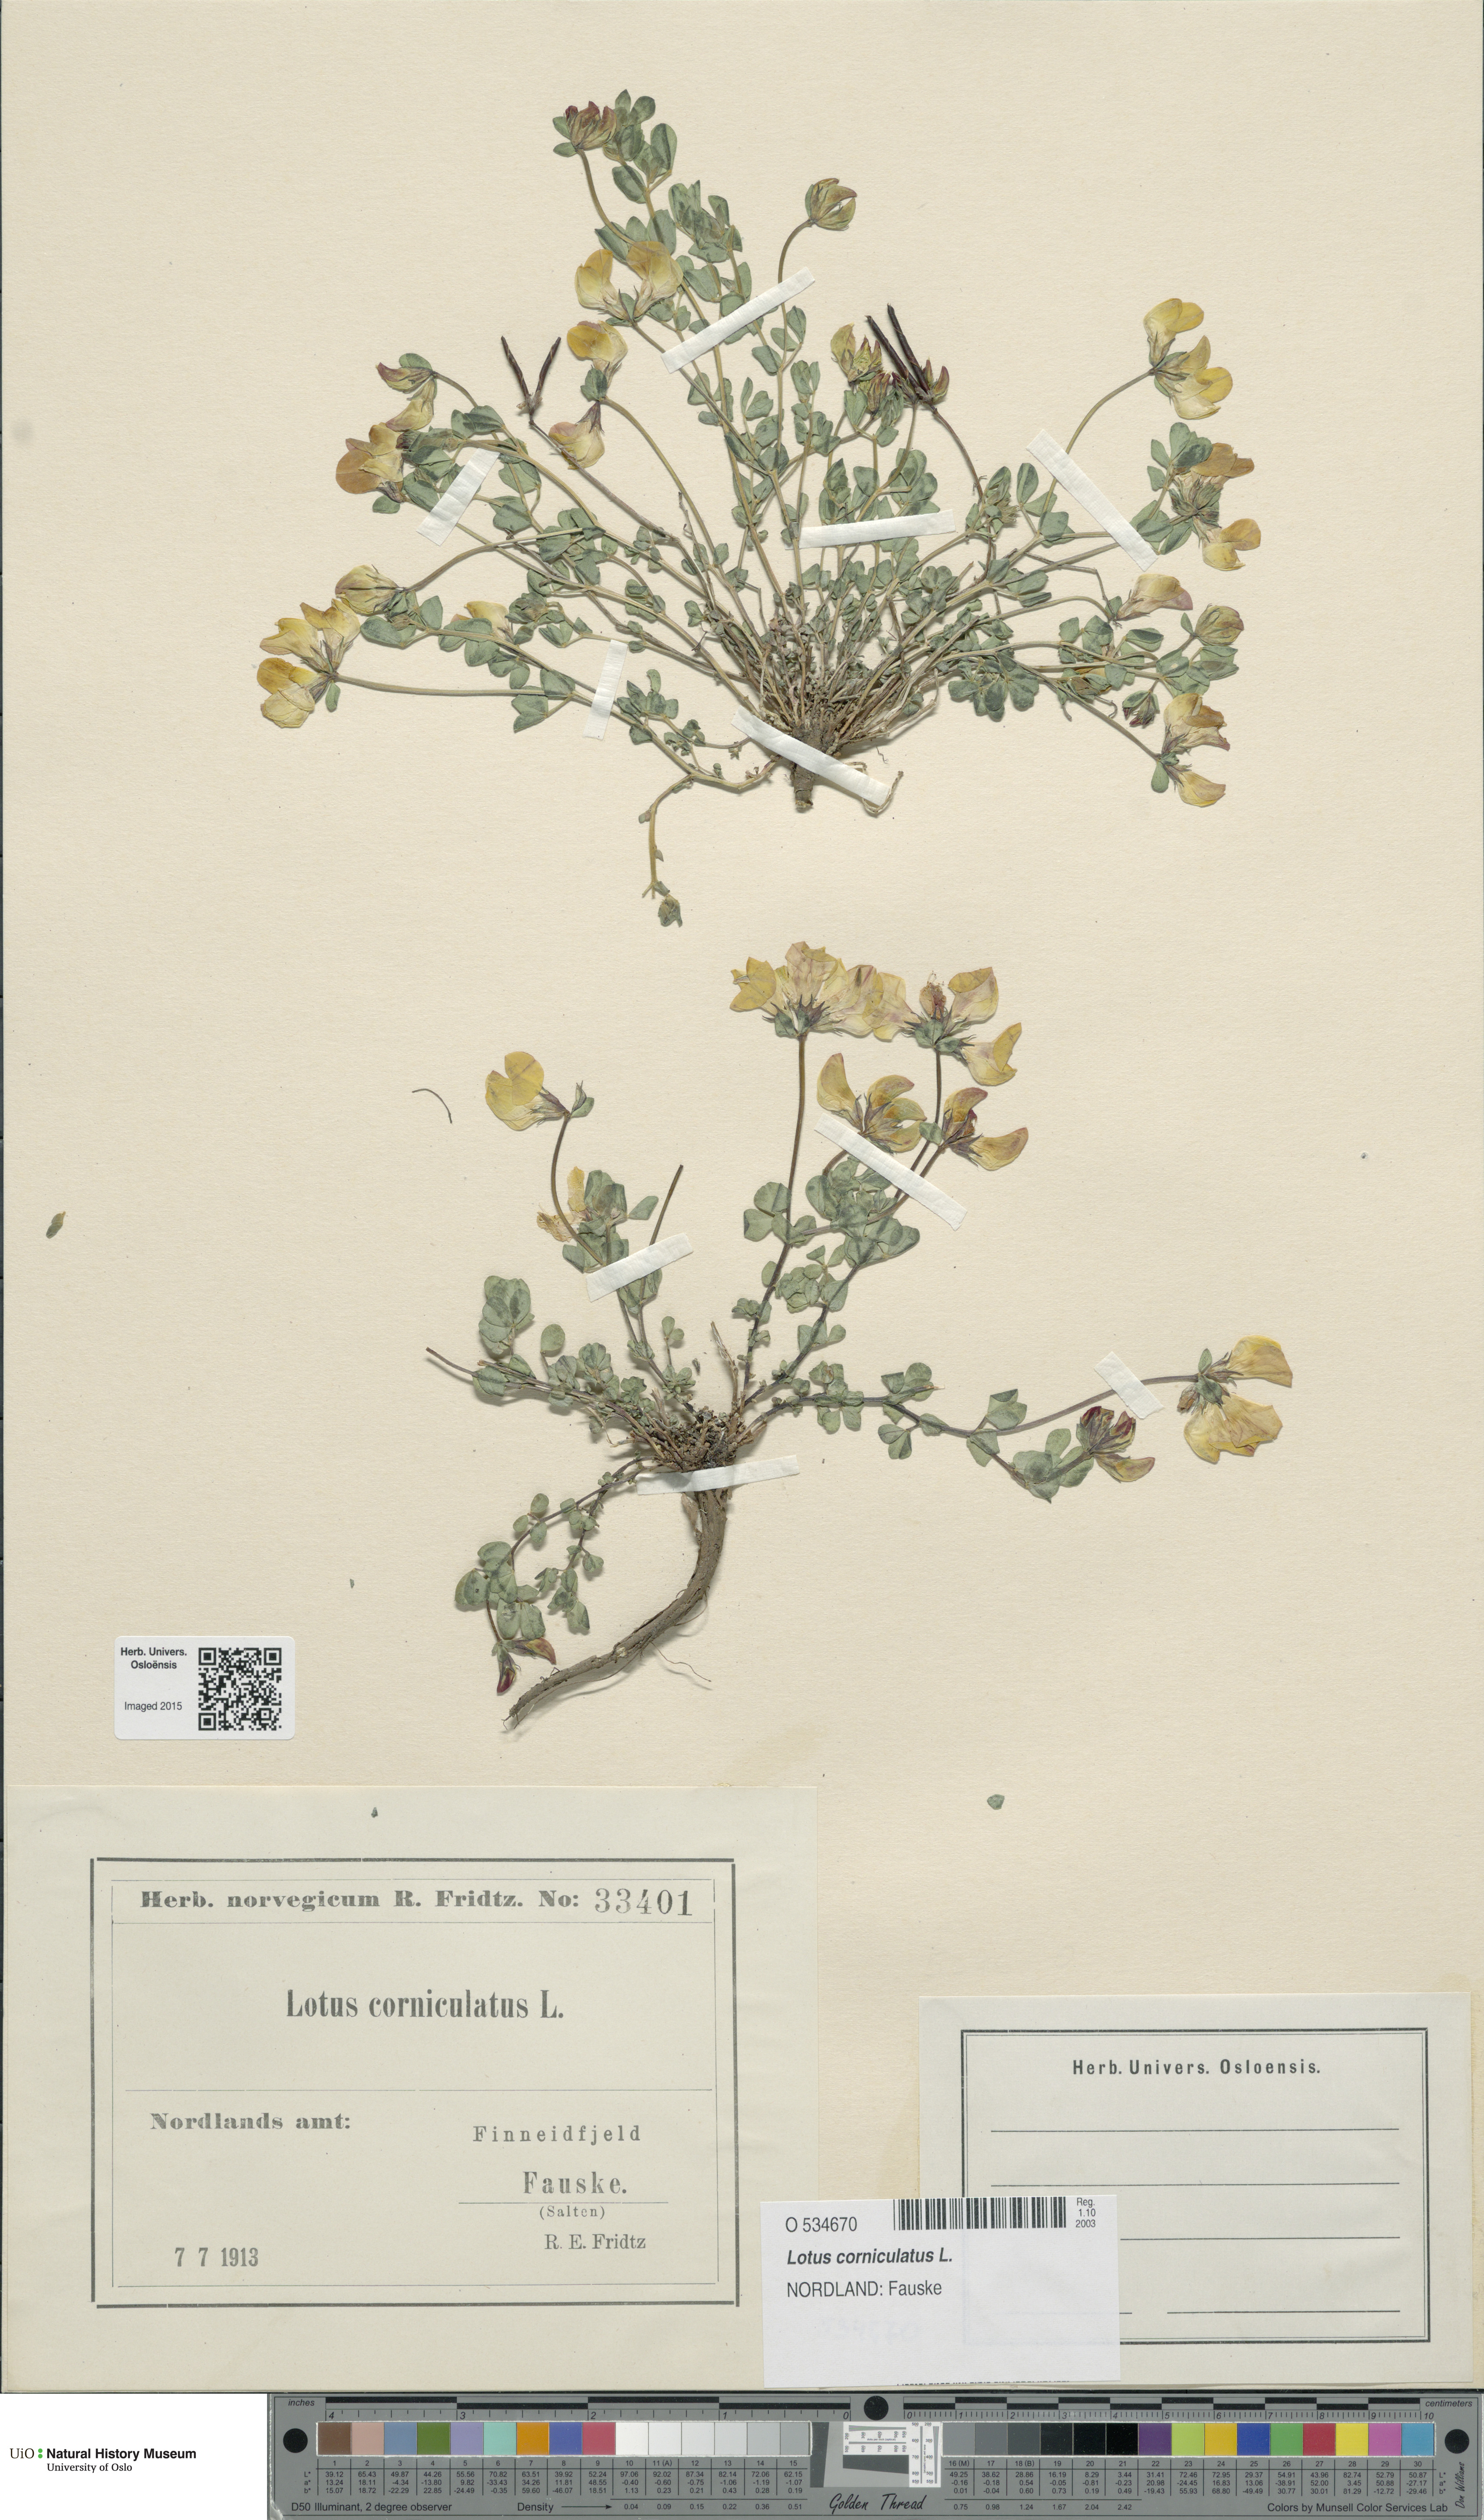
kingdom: Plantae
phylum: Tracheophyta
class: Magnoliopsida
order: Fabales
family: Fabaceae
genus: Lotus
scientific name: Lotus corniculatus
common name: Common bird's-foot-trefoil
